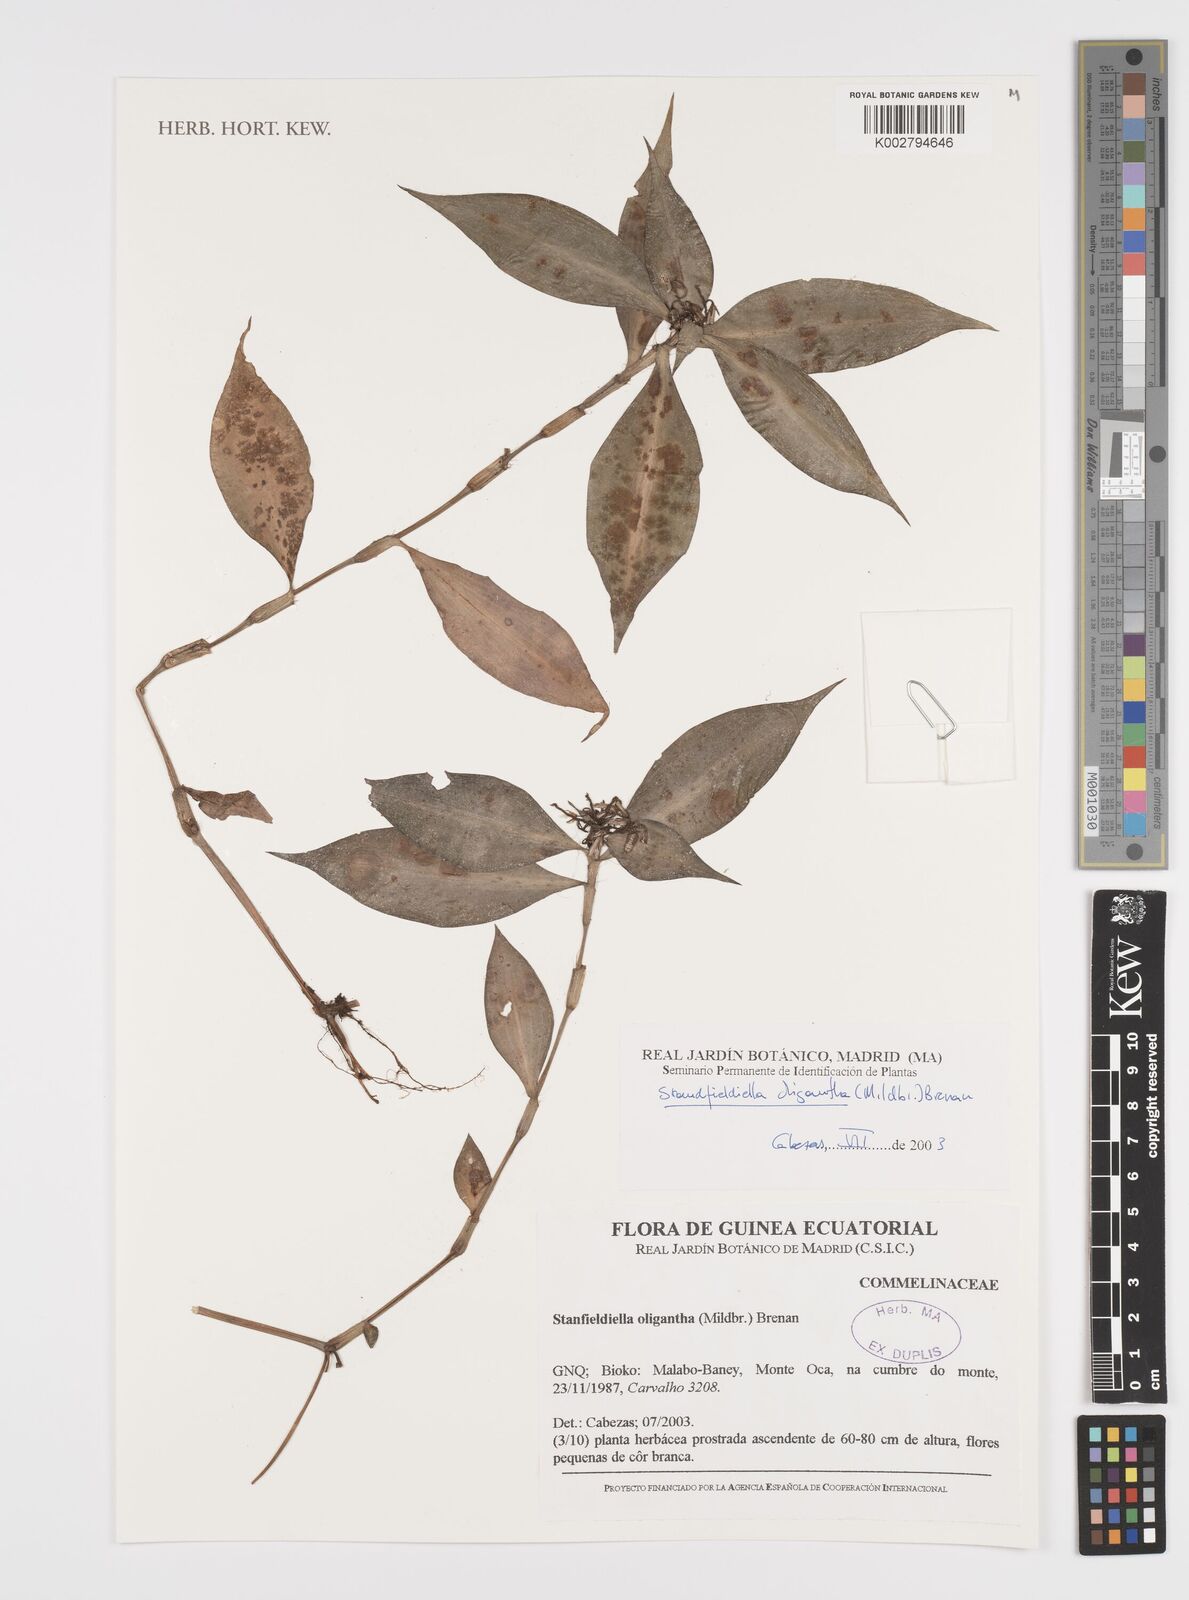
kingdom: Plantae
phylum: Tracheophyta
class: Liliopsida
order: Commelinales
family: Commelinaceae
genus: Stanfieldiella
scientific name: Stanfieldiella oligantha
